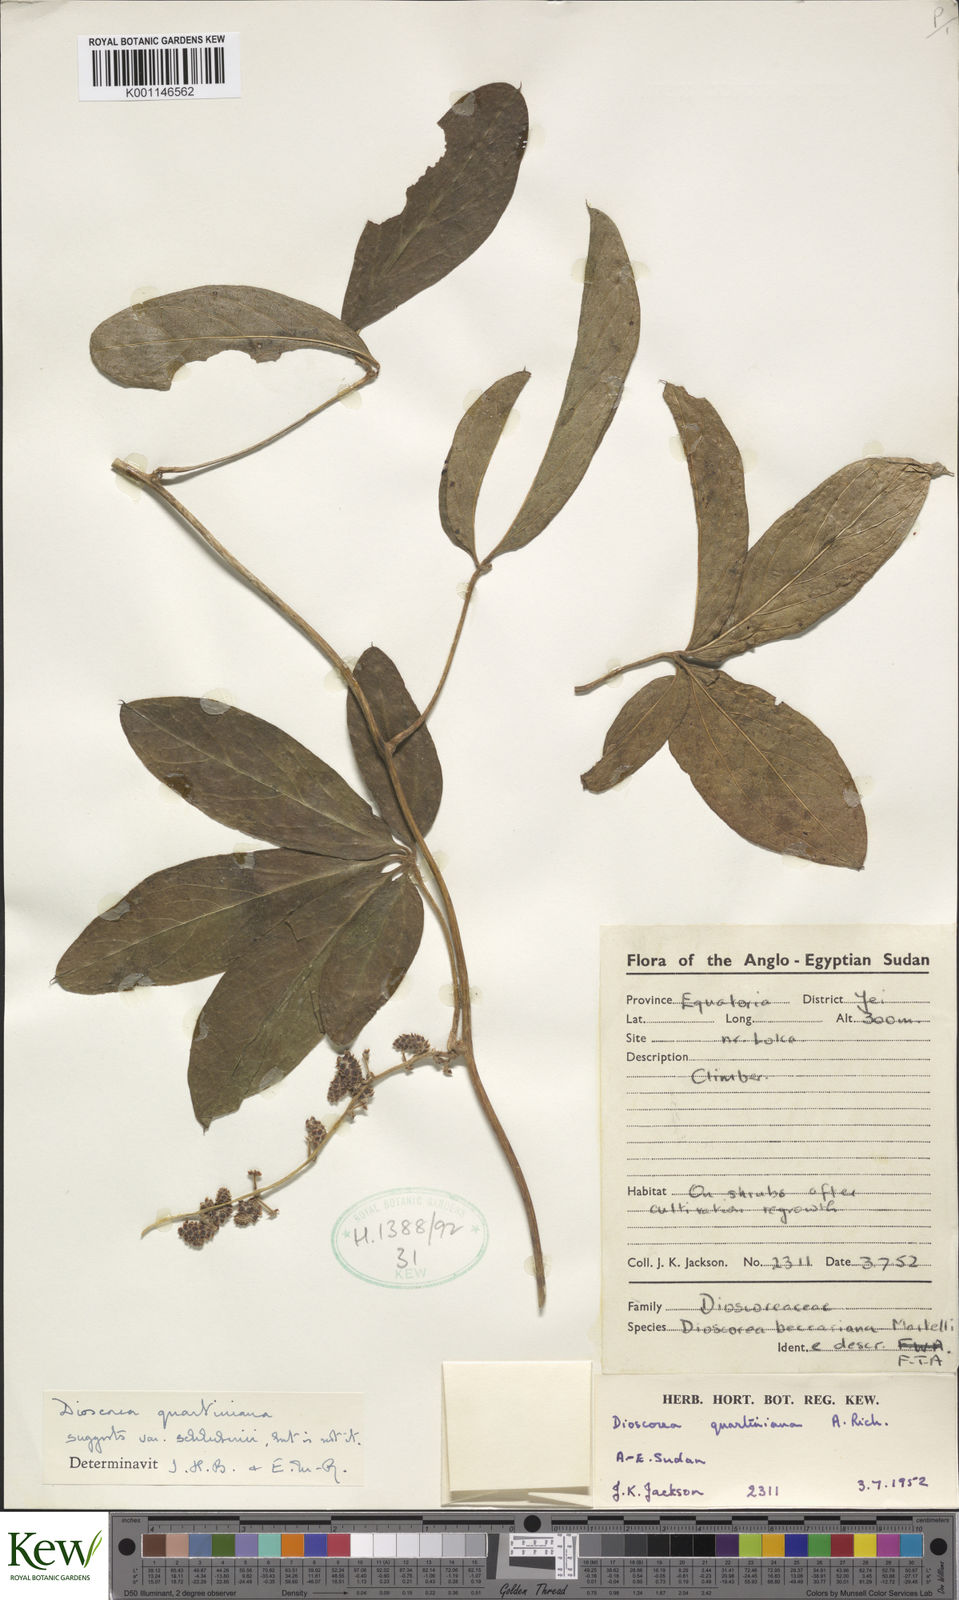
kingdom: Plantae
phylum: Tracheophyta
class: Liliopsida
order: Dioscoreales
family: Dioscoreaceae
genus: Dioscorea
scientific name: Dioscorea quartiniana
